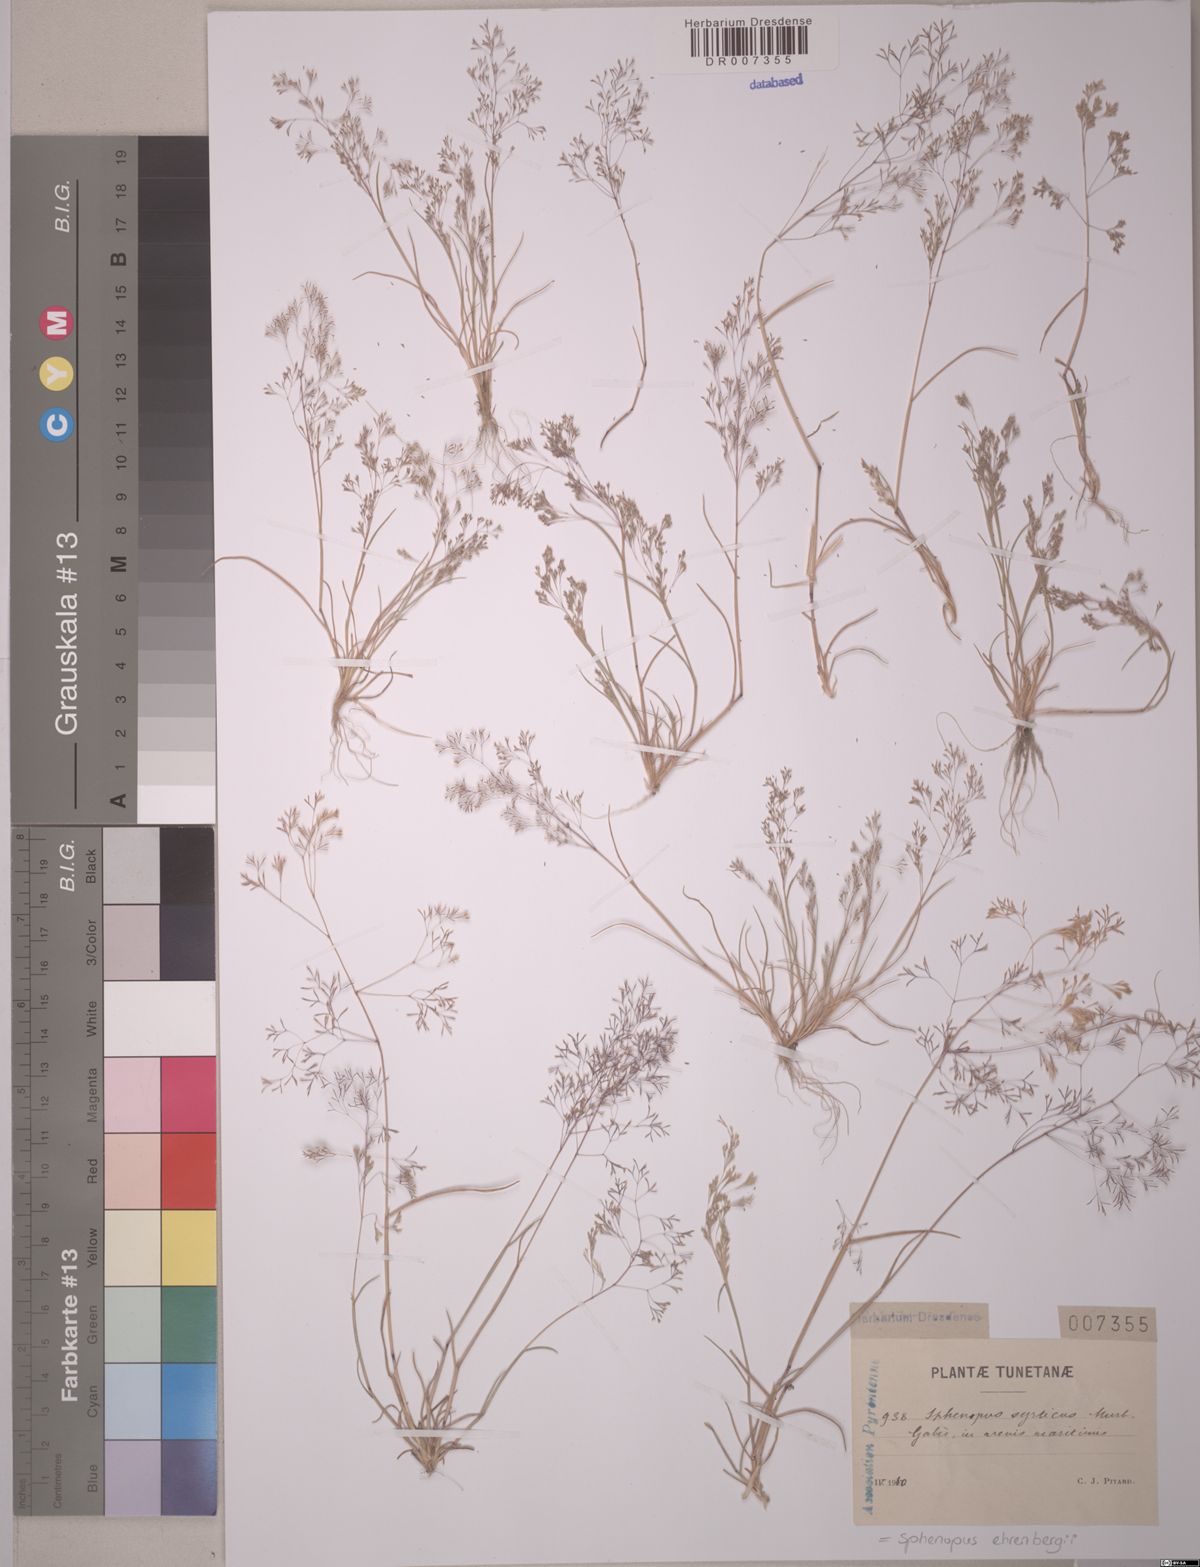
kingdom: Plantae
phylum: Tracheophyta
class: Liliopsida
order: Poales
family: Poaceae
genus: Sphenopus
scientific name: Sphenopus ehrenbergii
